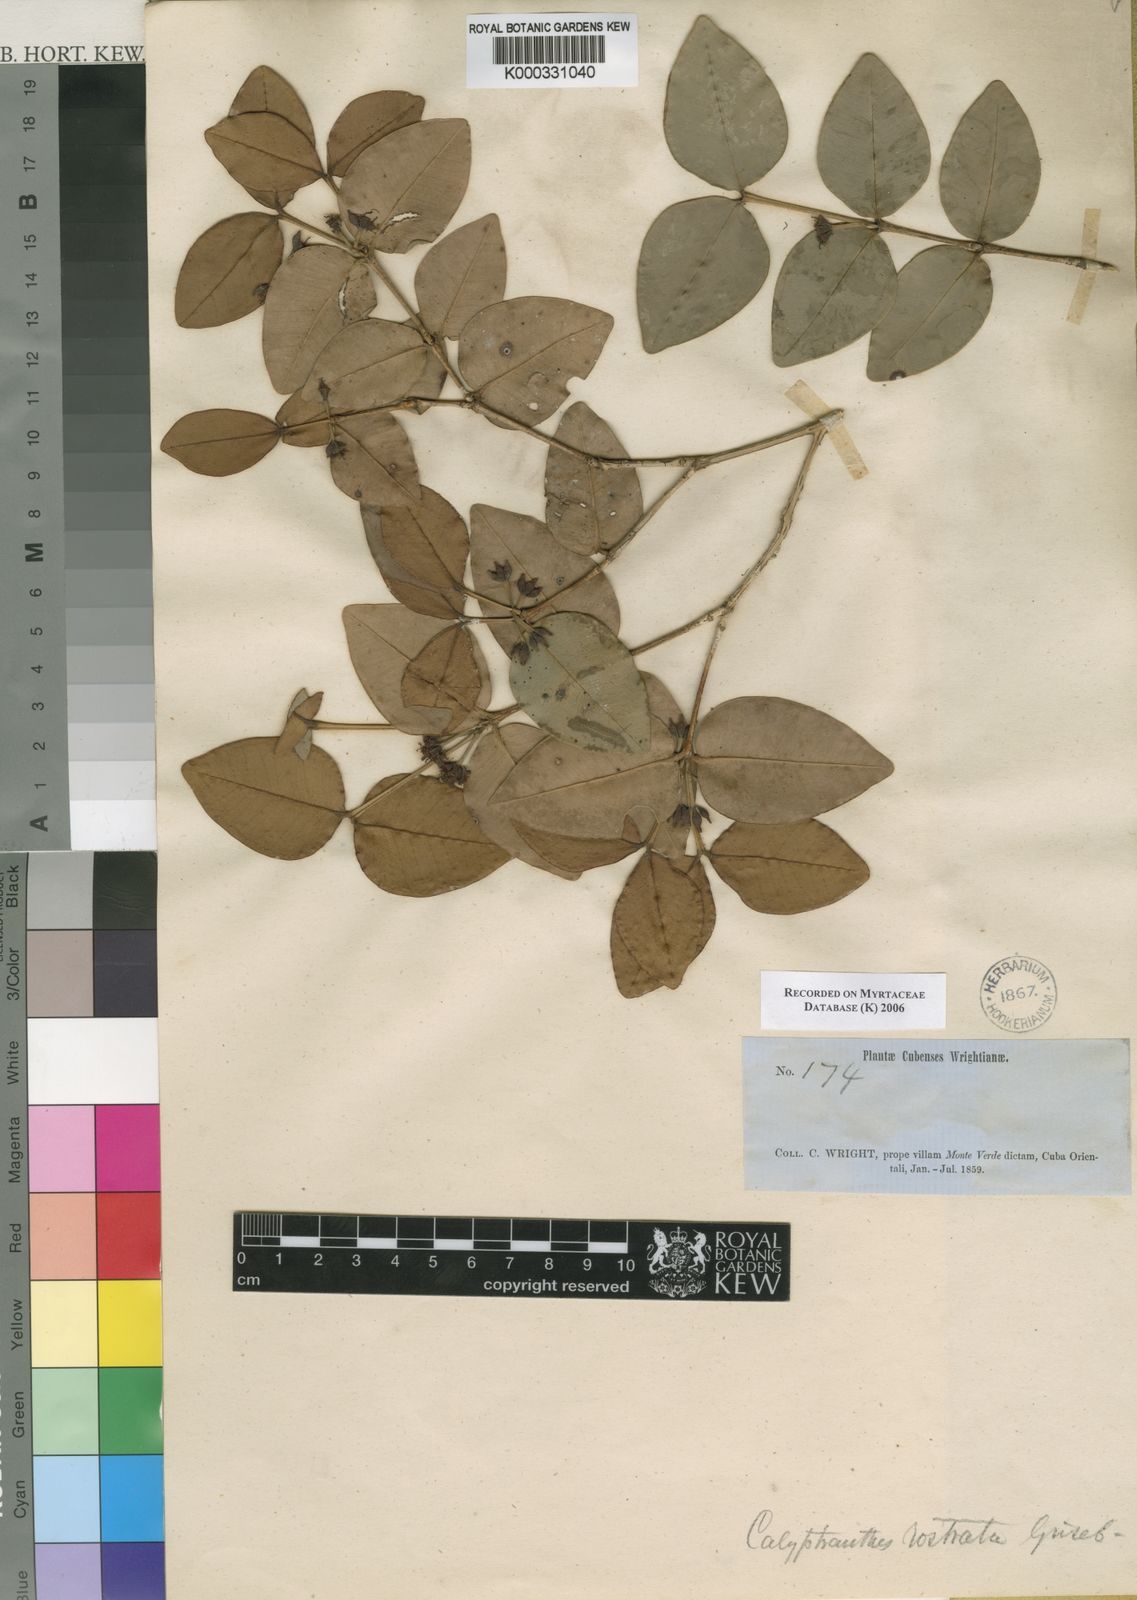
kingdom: Plantae
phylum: Tracheophyta
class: Magnoliopsida
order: Myrtales
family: Myrtaceae
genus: Myrcia
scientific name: Myrcia adunca
